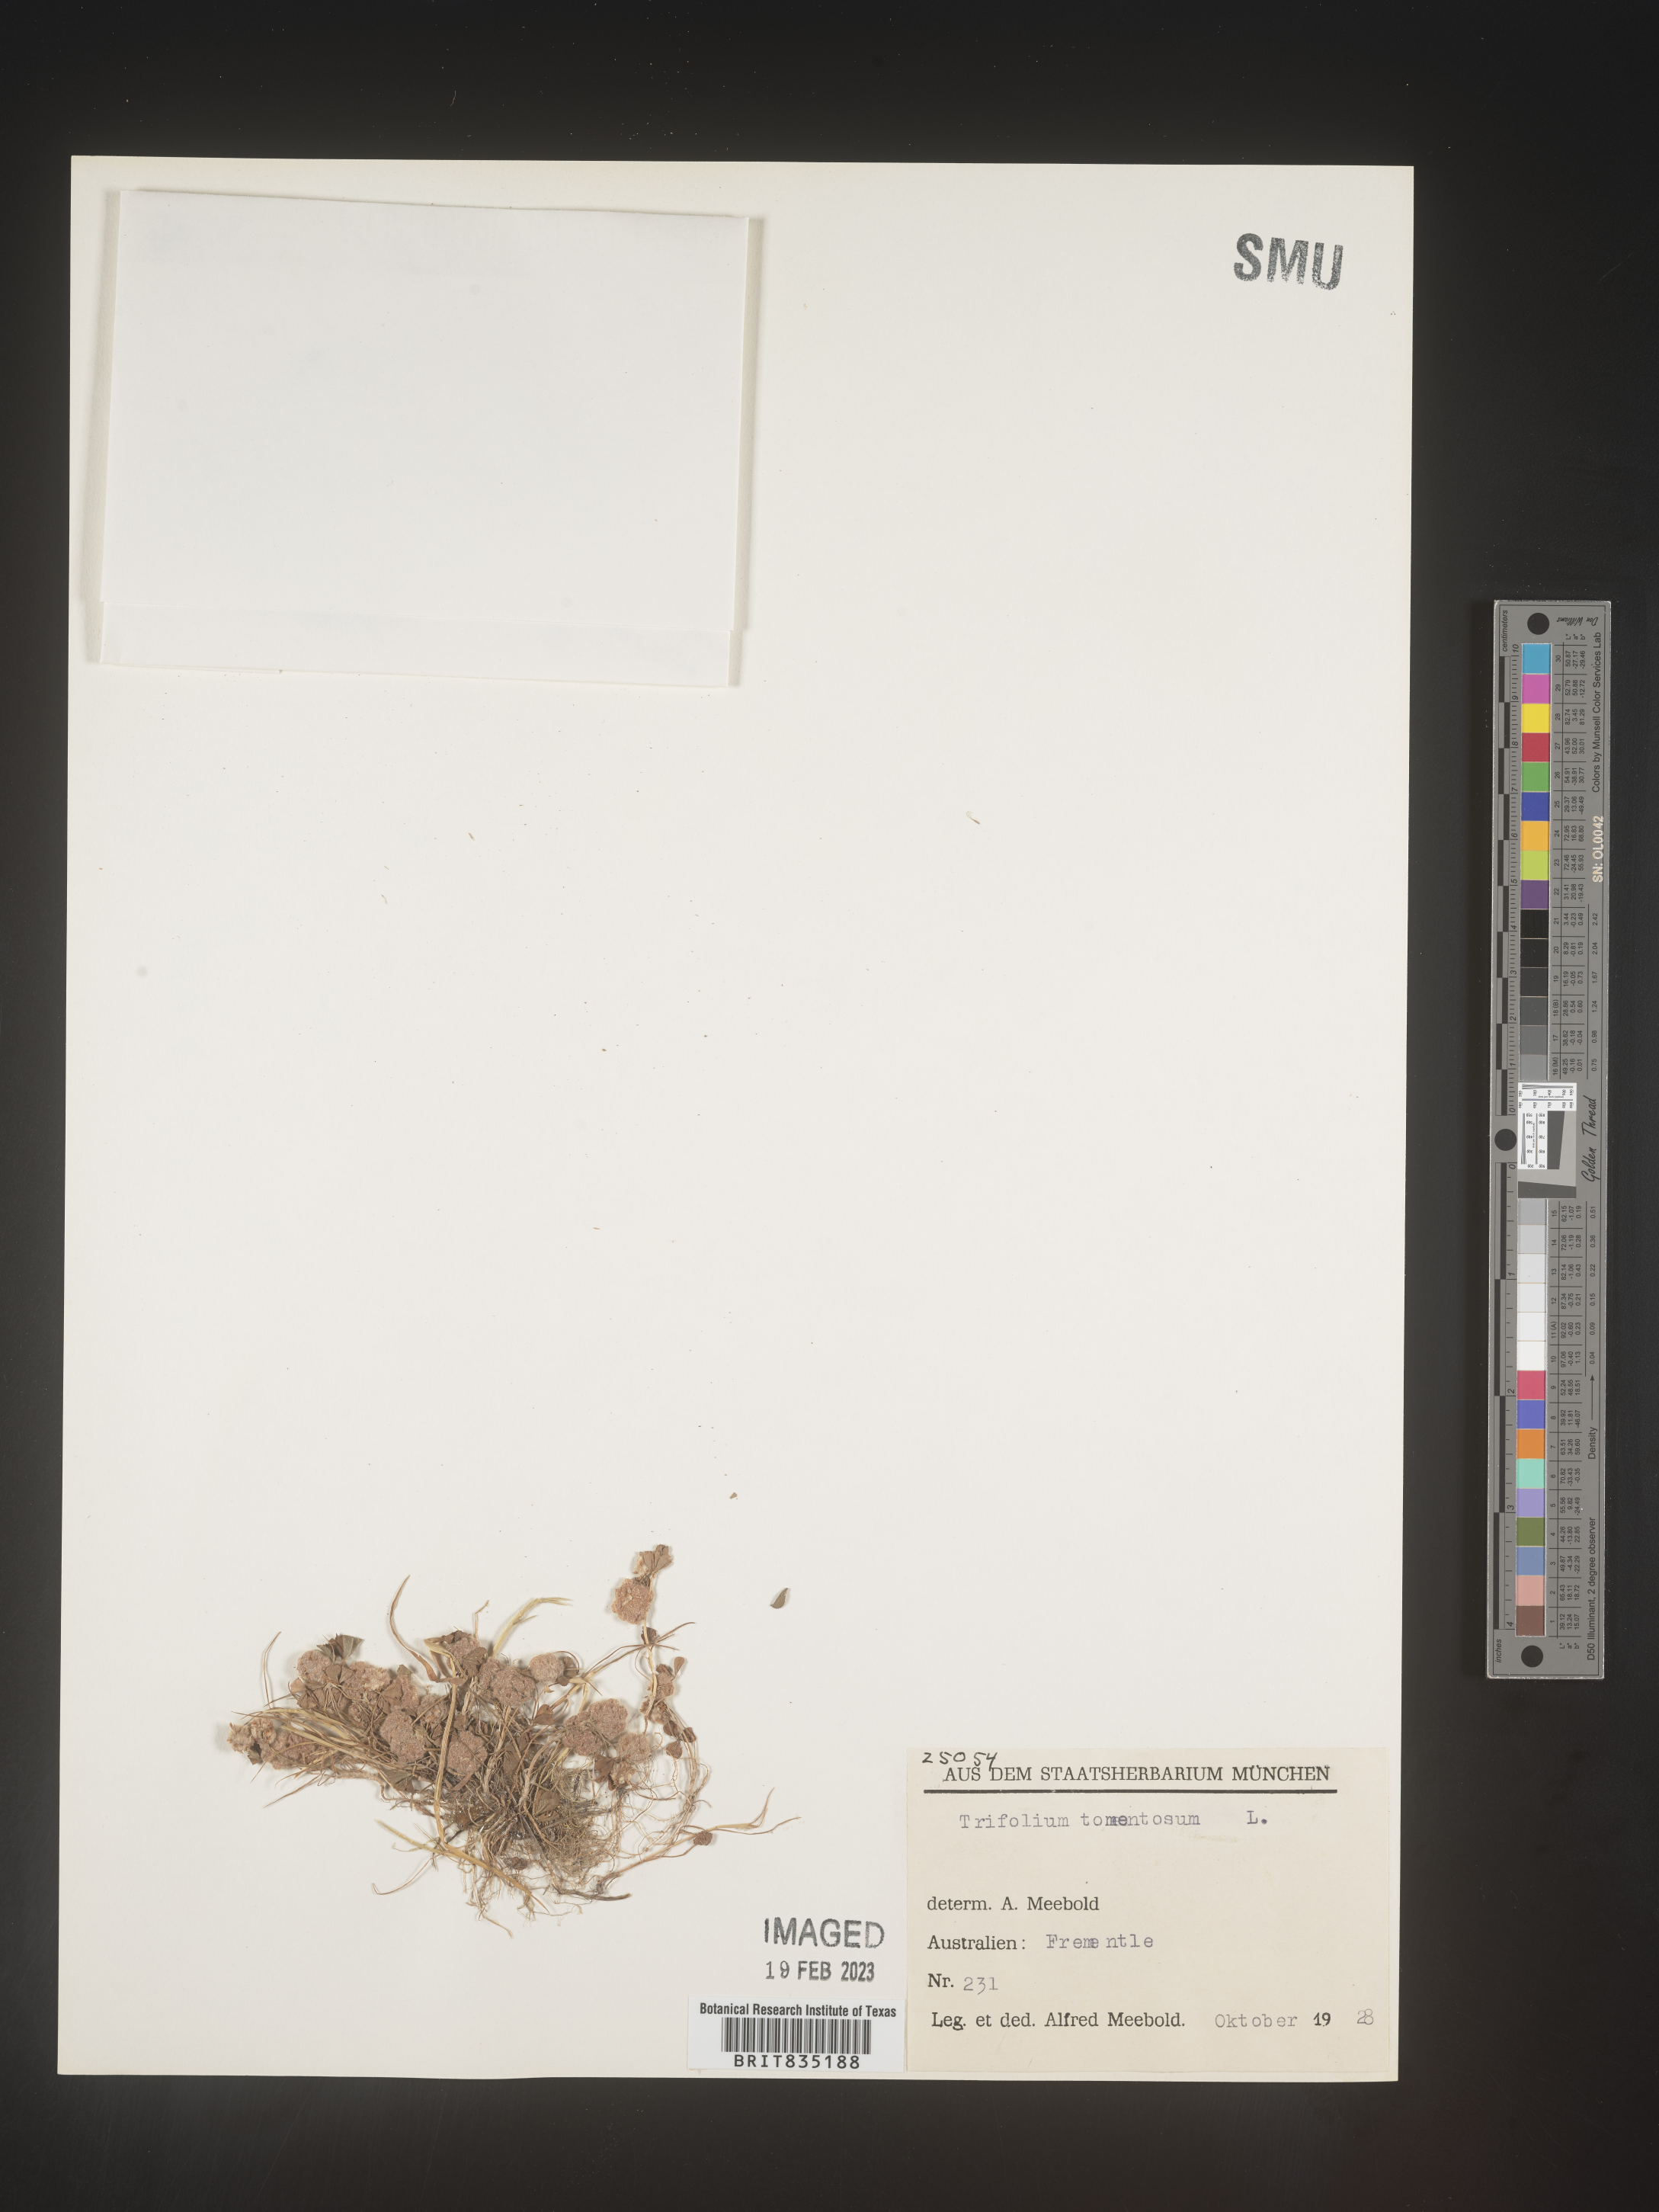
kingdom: Plantae
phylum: Tracheophyta
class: Magnoliopsida
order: Fabales
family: Fabaceae
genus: Trifolium
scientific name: Trifolium
